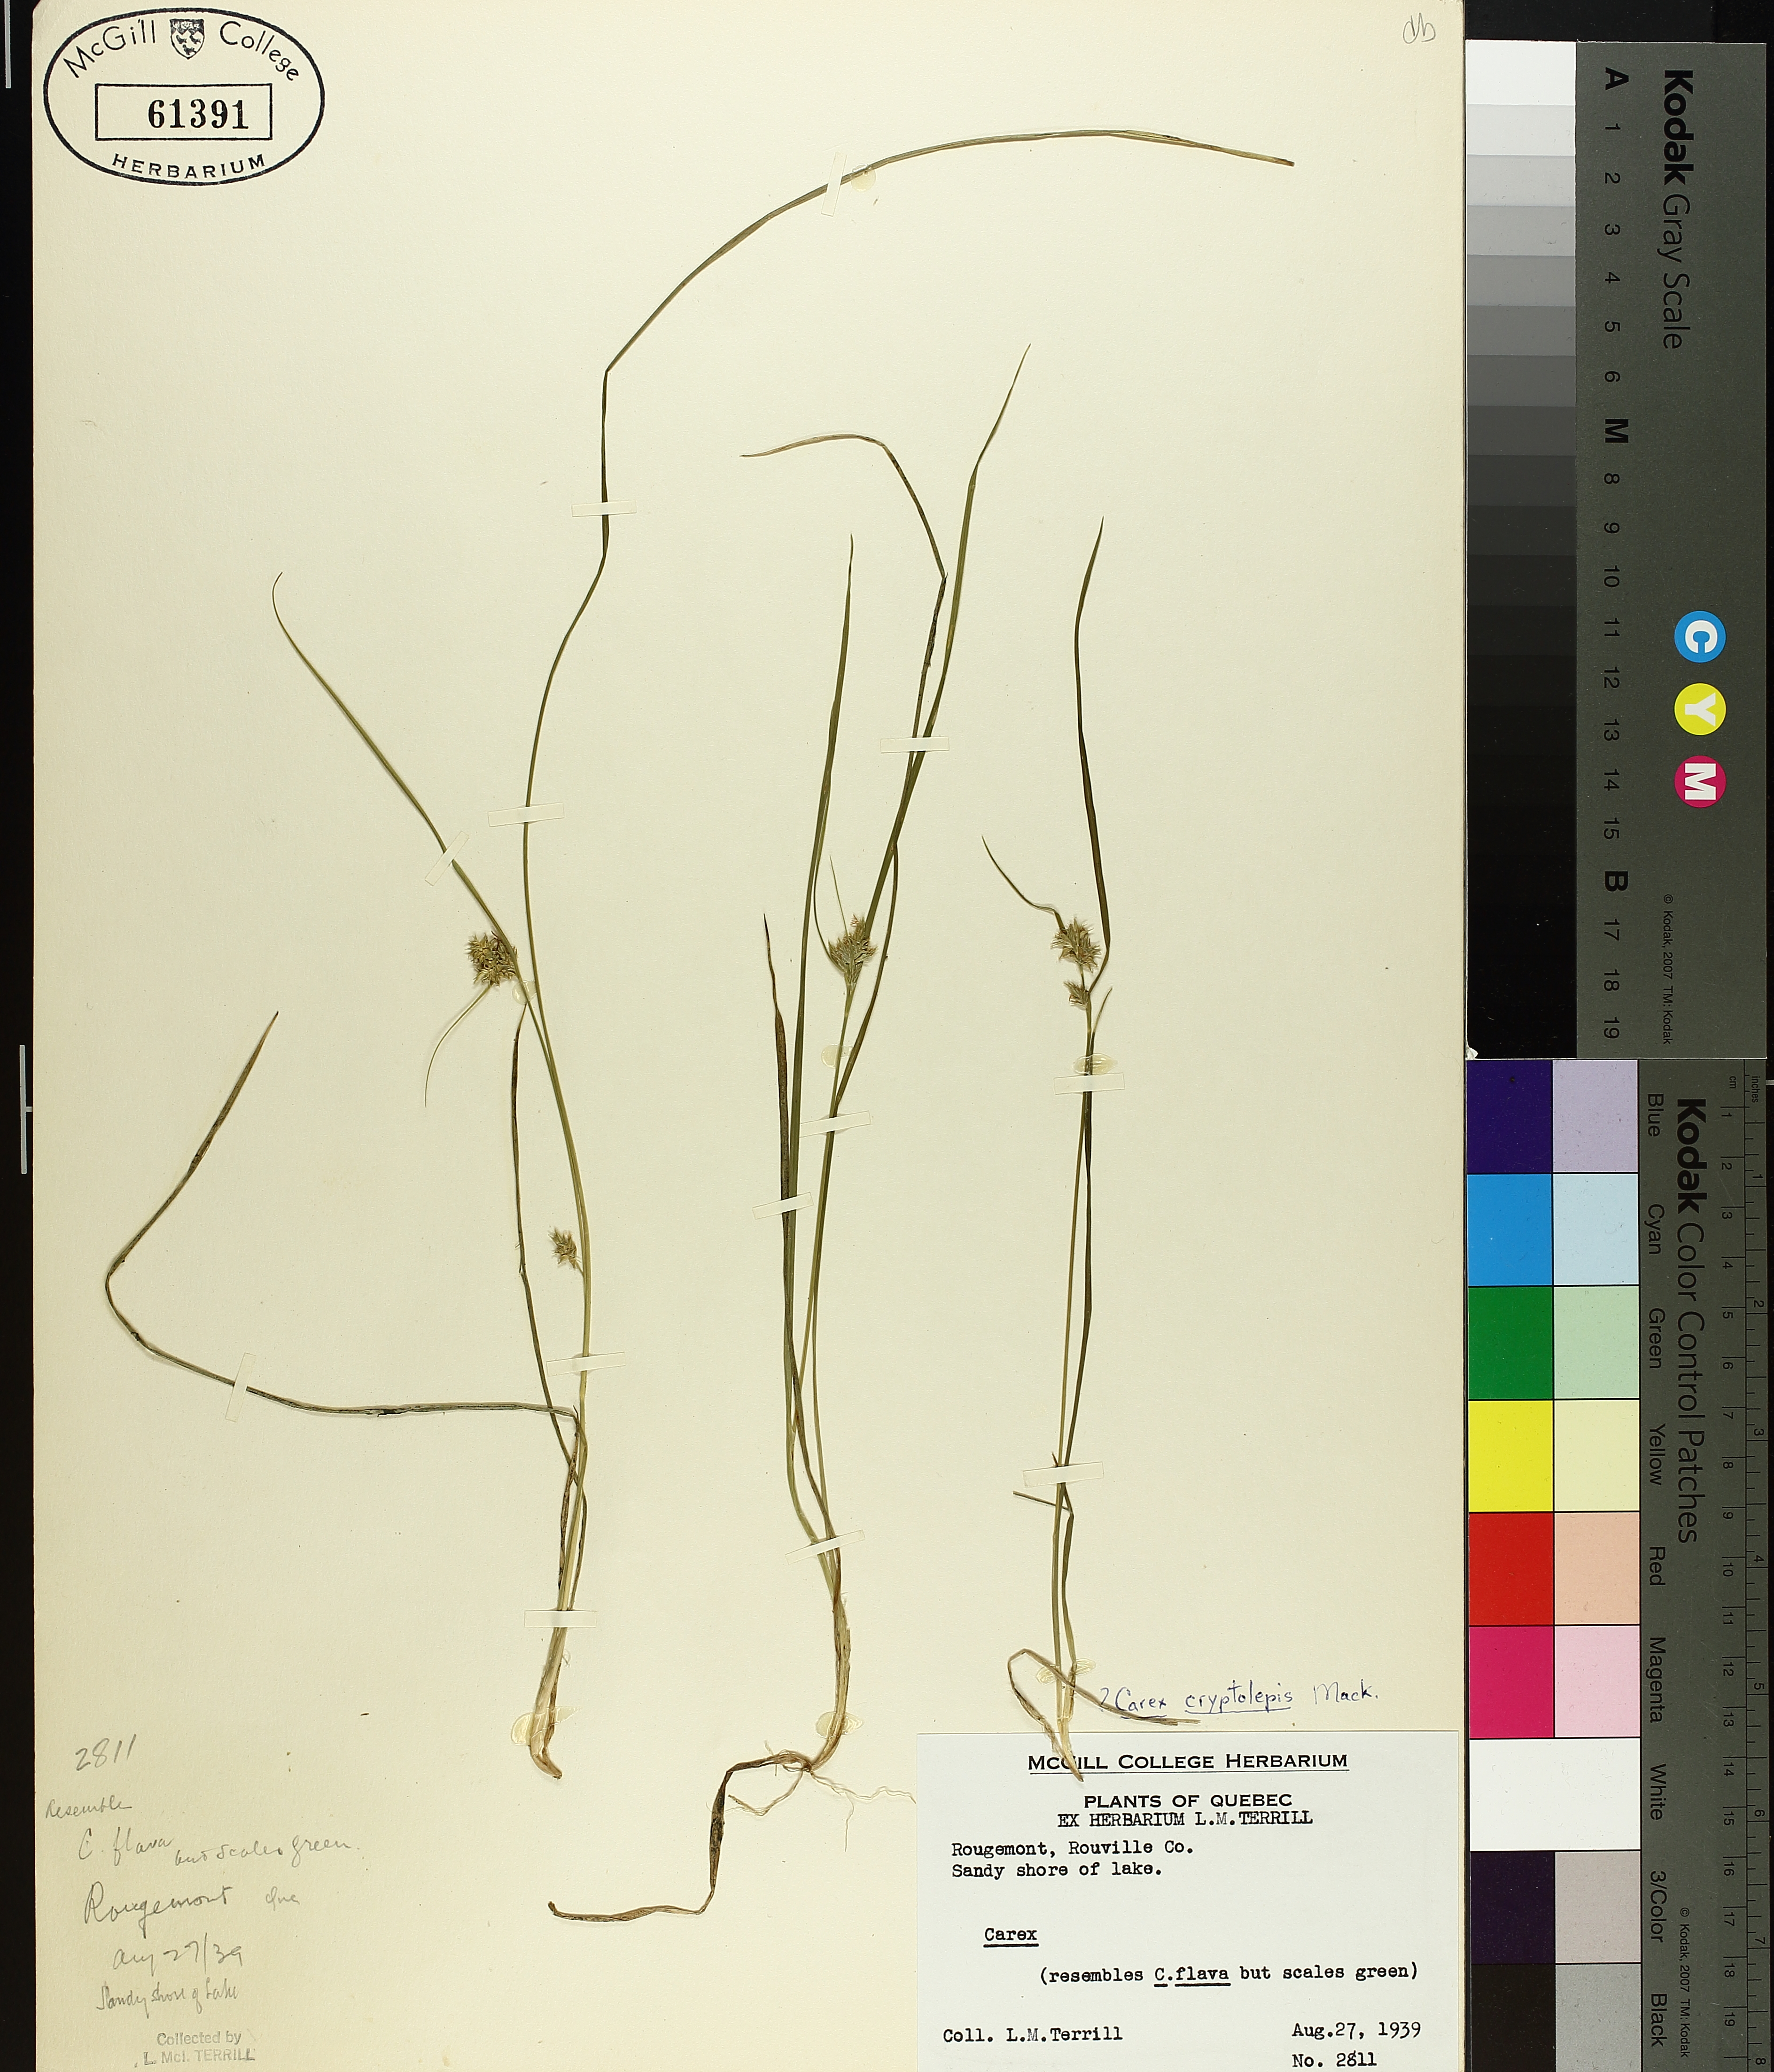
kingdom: Plantae
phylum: Tracheophyta
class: Liliopsida
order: Poales
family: Cyperaceae
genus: Carex
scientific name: Carex cryptolepis
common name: Northeastern sedge
